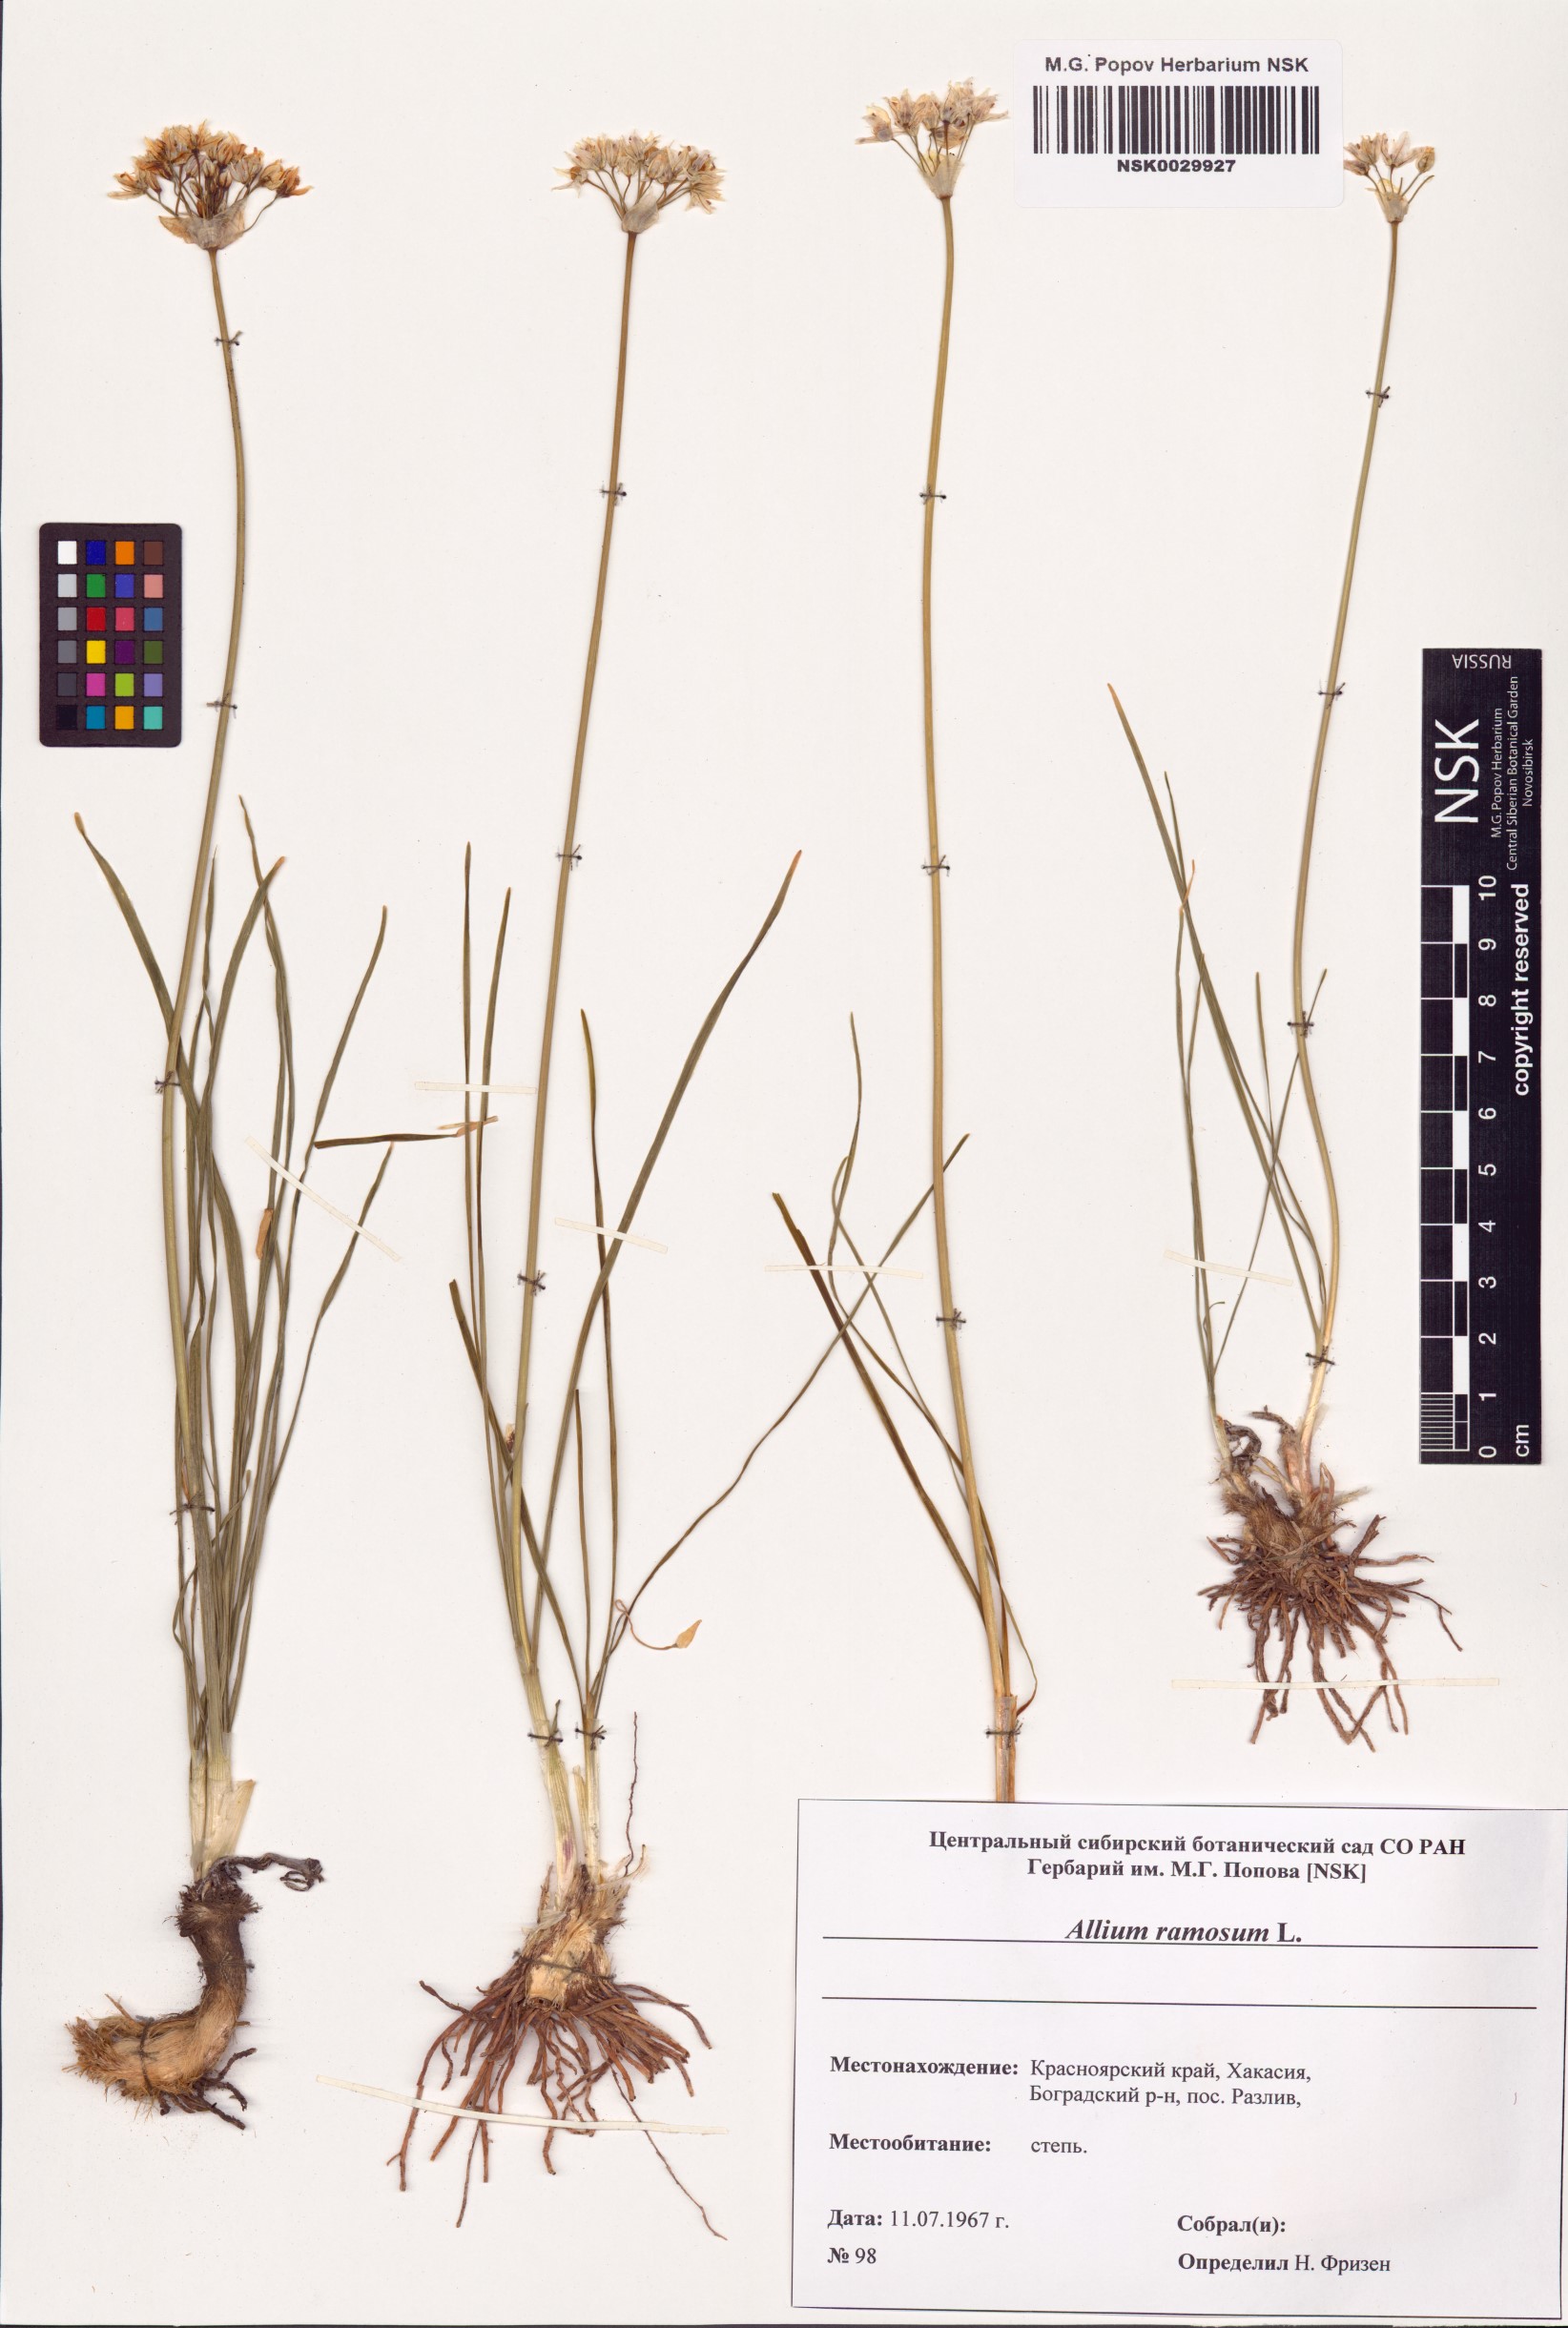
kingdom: Plantae
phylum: Tracheophyta
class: Liliopsida
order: Asparagales
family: Amaryllidaceae
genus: Allium
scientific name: Allium ramosum
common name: Fragrant garlic
